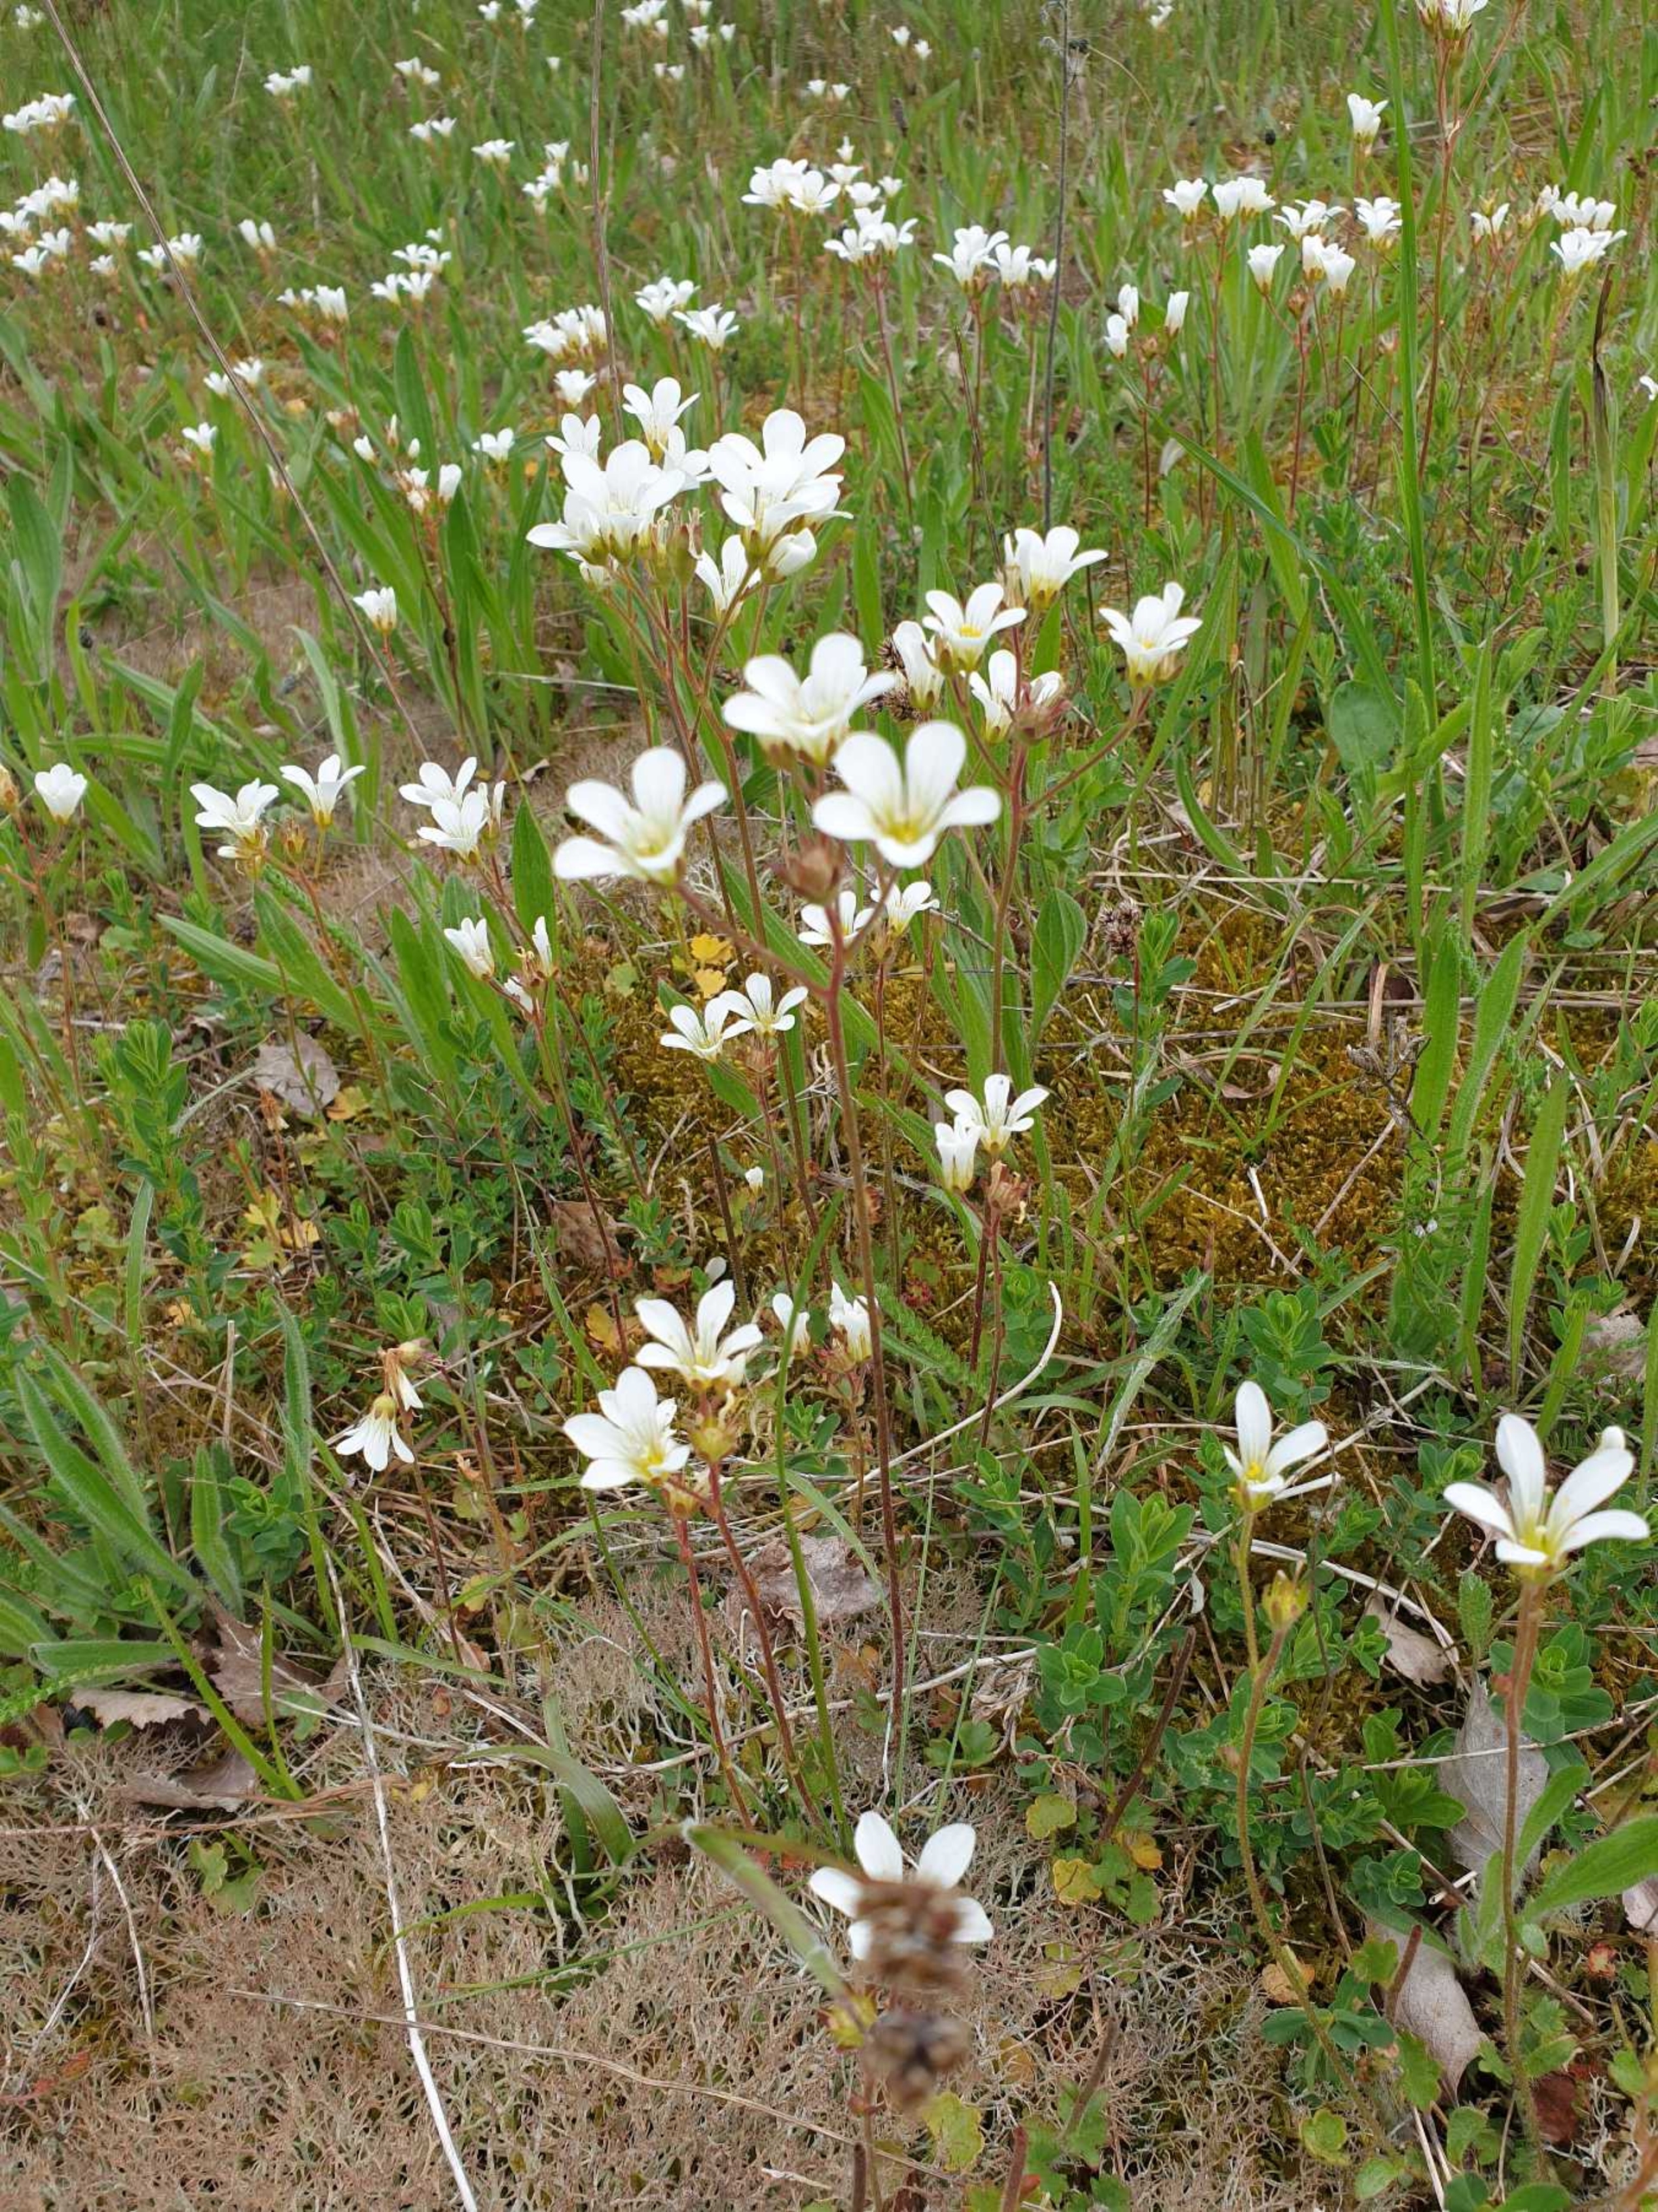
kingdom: Plantae
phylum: Tracheophyta
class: Magnoliopsida
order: Saxifragales
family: Saxifragaceae
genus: Saxifraga
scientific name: Saxifraga granulata
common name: Kornet stenbræk
